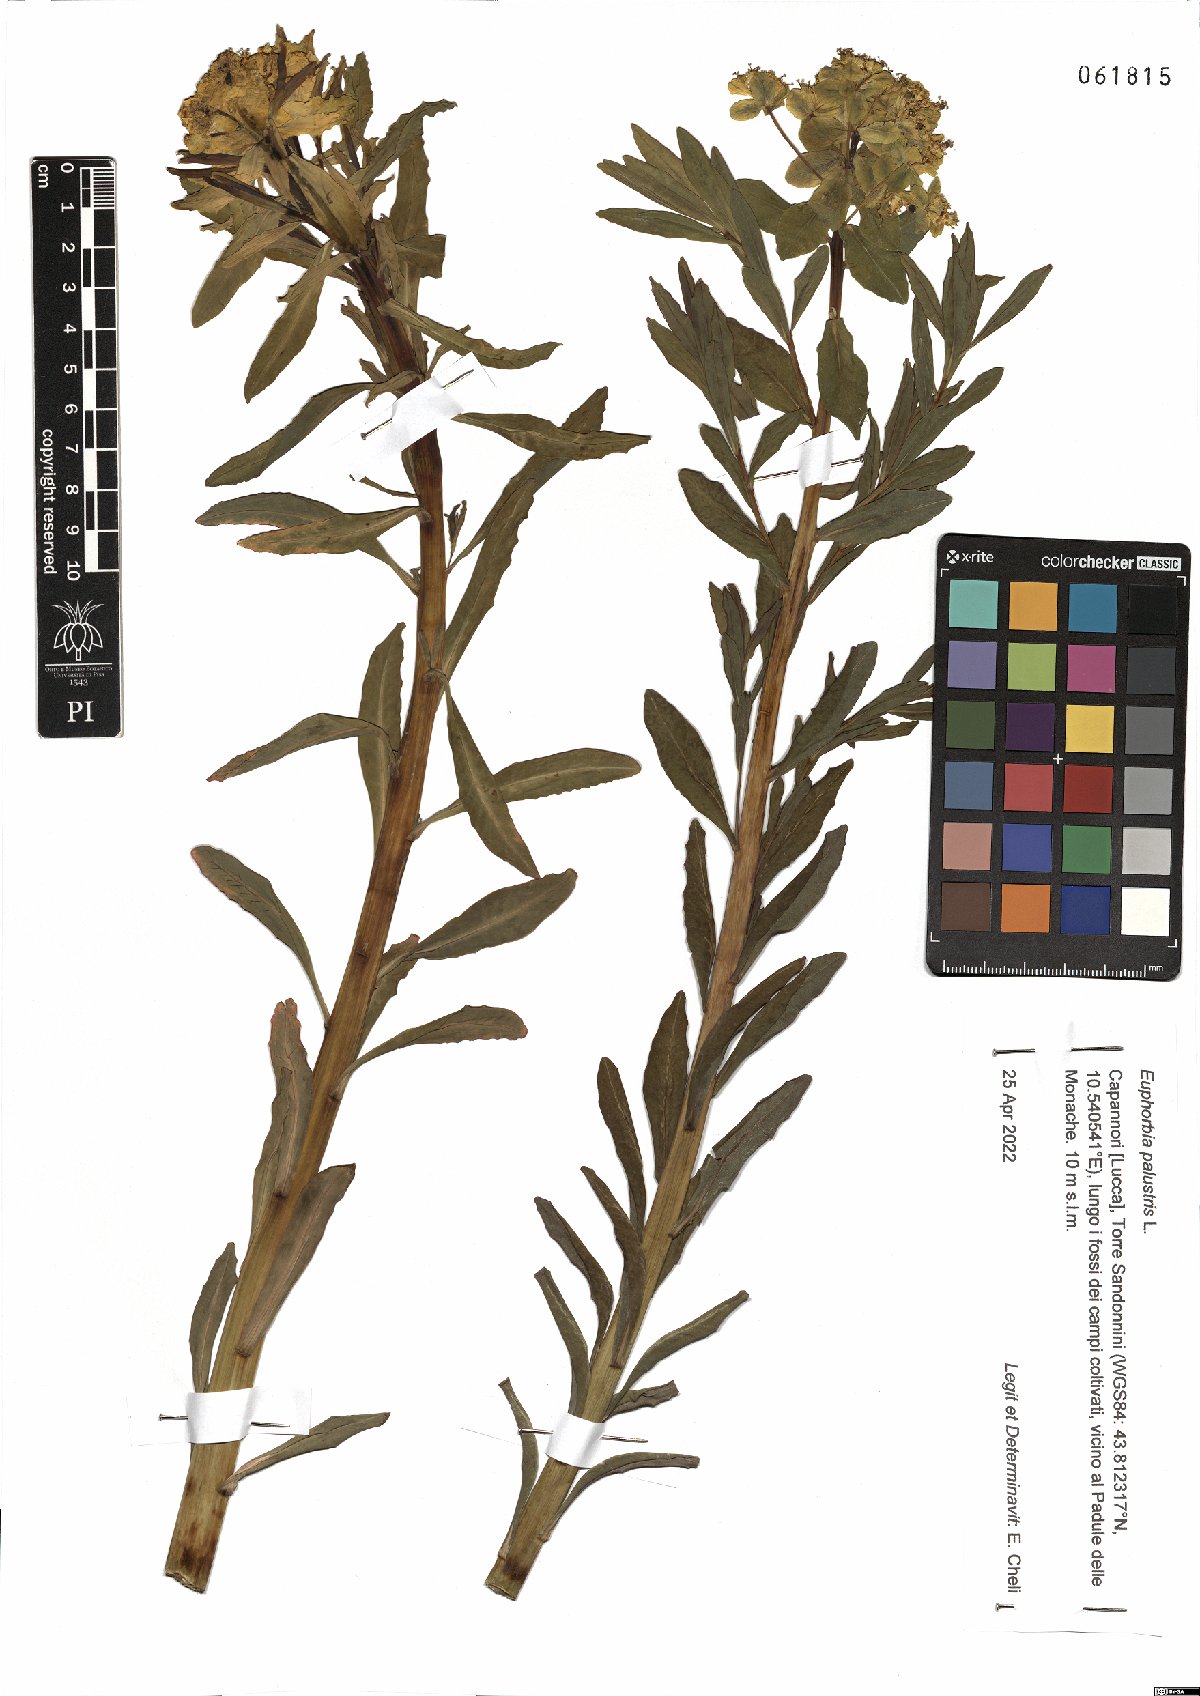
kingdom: Plantae
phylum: Tracheophyta
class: Magnoliopsida
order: Malpighiales
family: Euphorbiaceae
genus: Euphorbia
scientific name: Euphorbia palustris
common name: Marsh spurge
